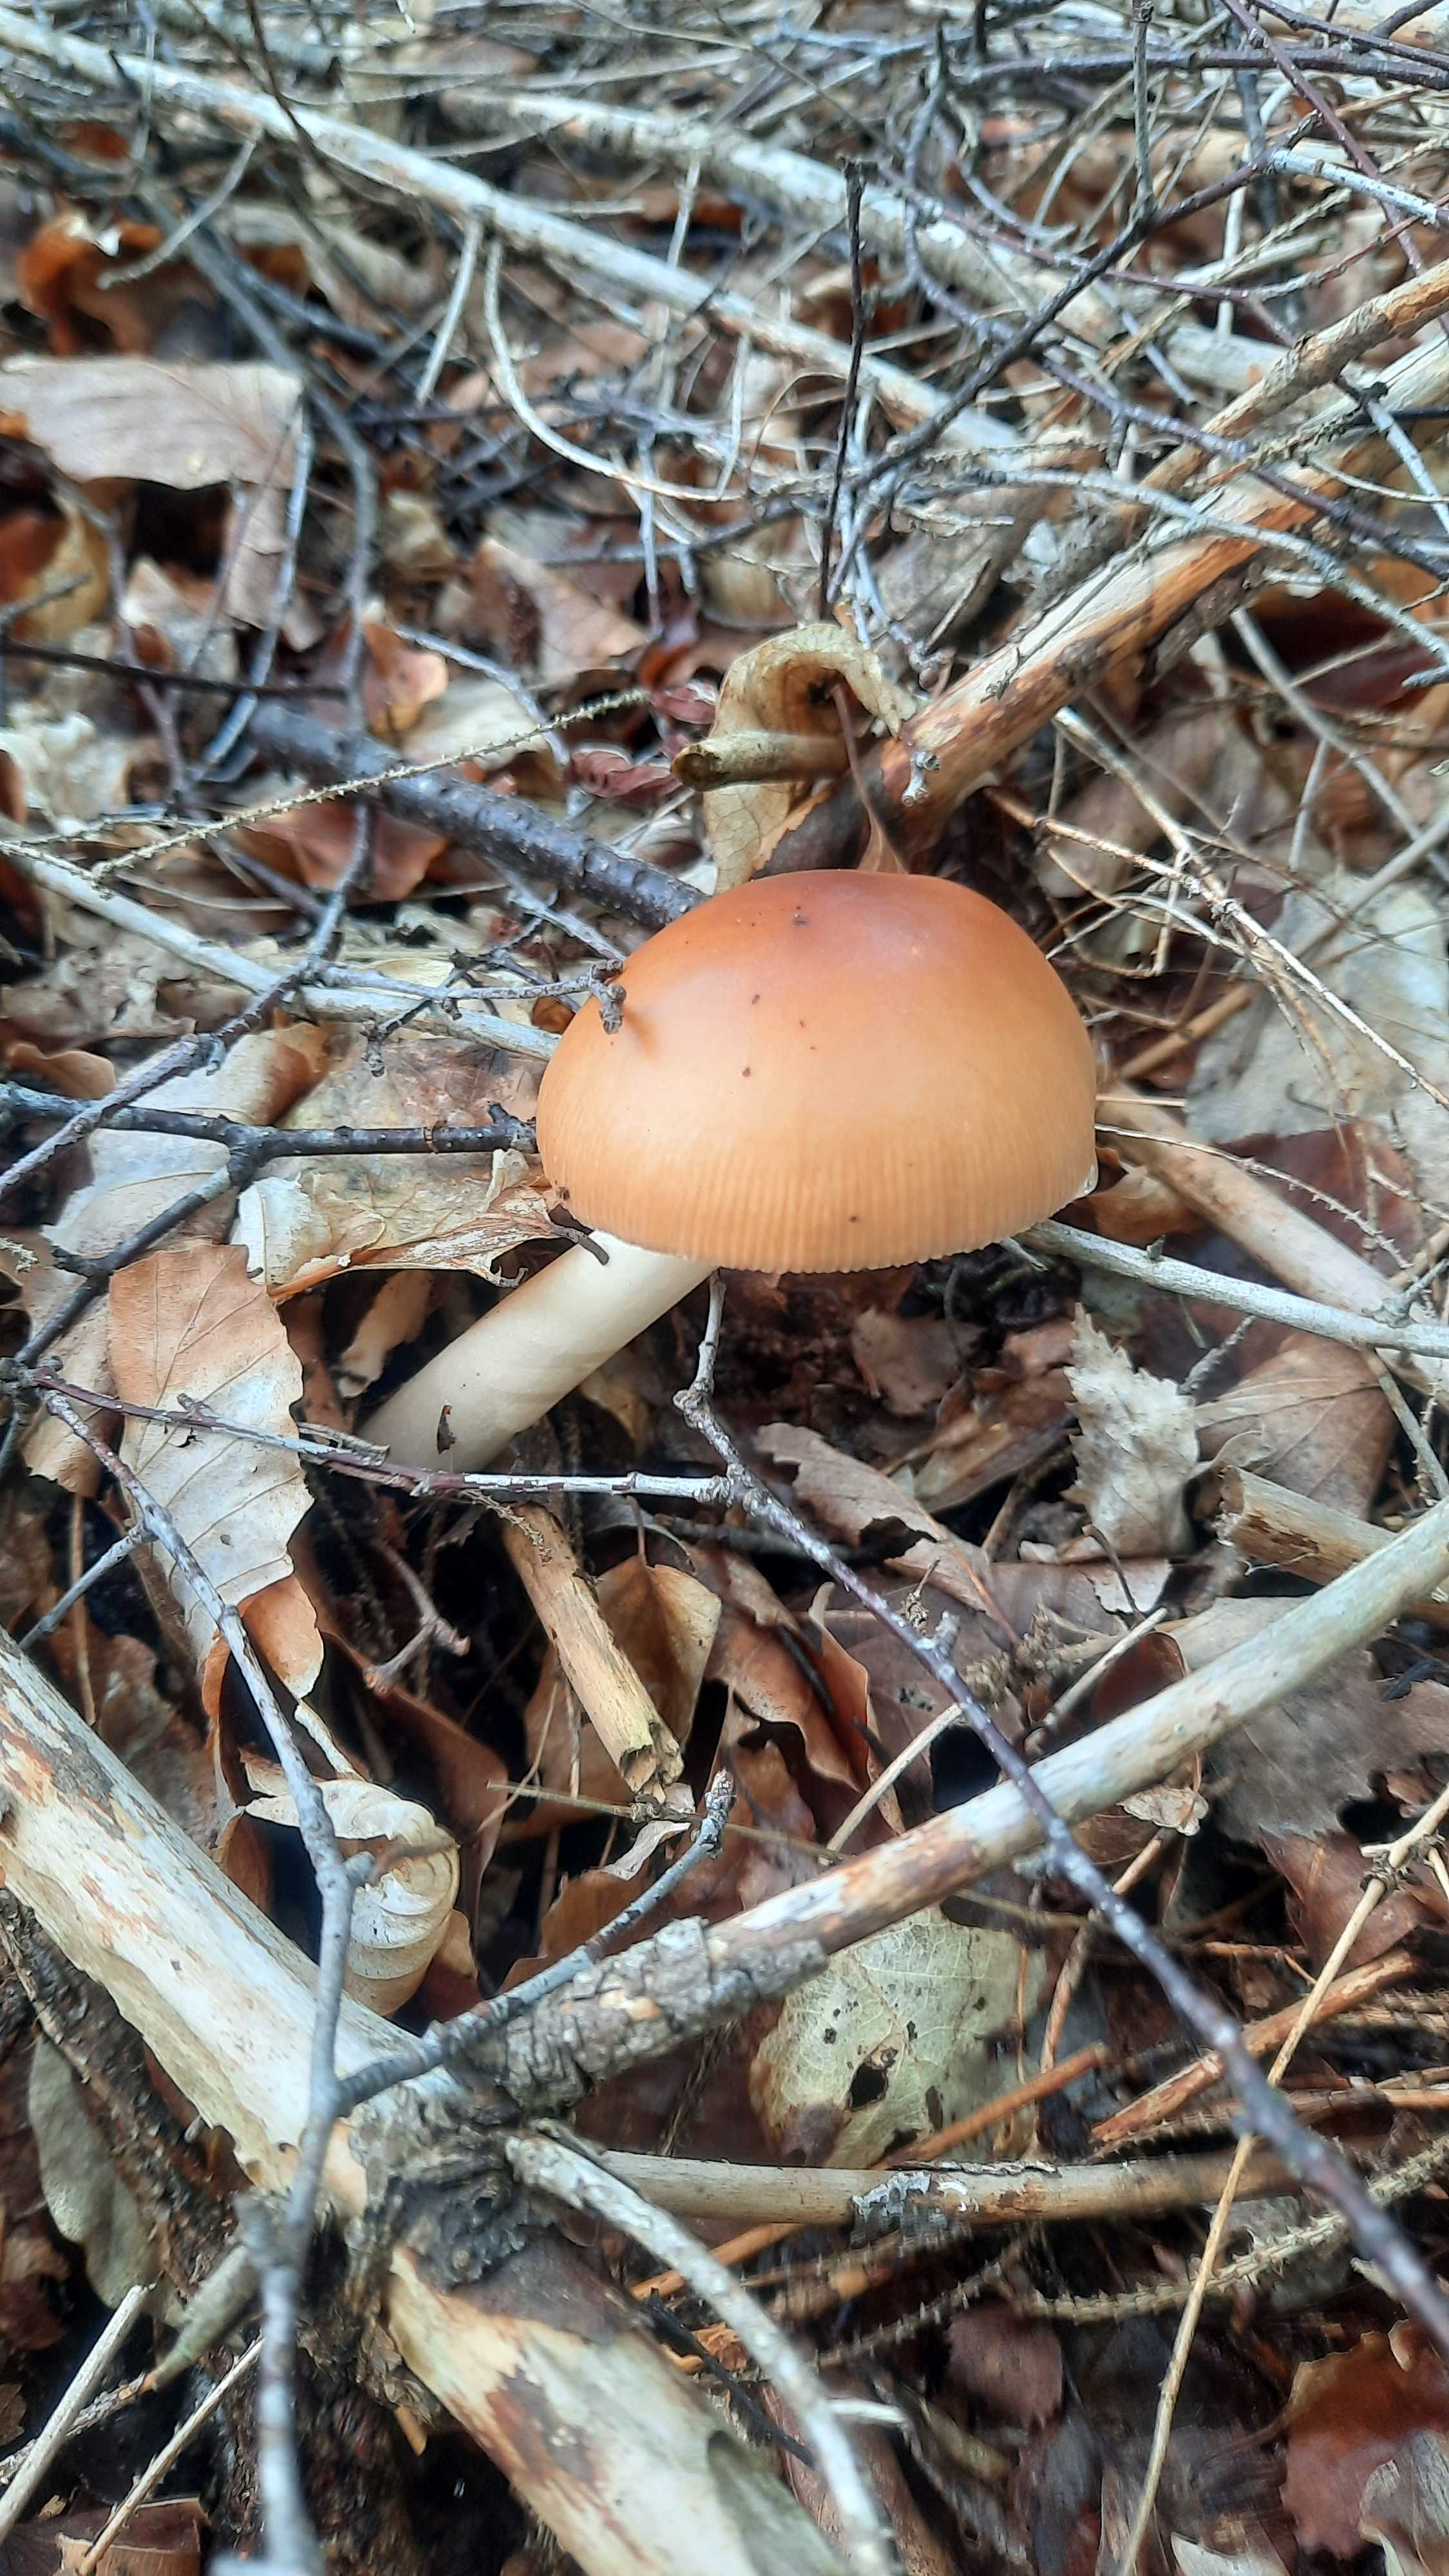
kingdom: Fungi
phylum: Basidiomycota
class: Agaricomycetes
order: Agaricales
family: Amanitaceae
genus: Amanita
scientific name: Amanita fulva
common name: brun kam-fluesvamp
